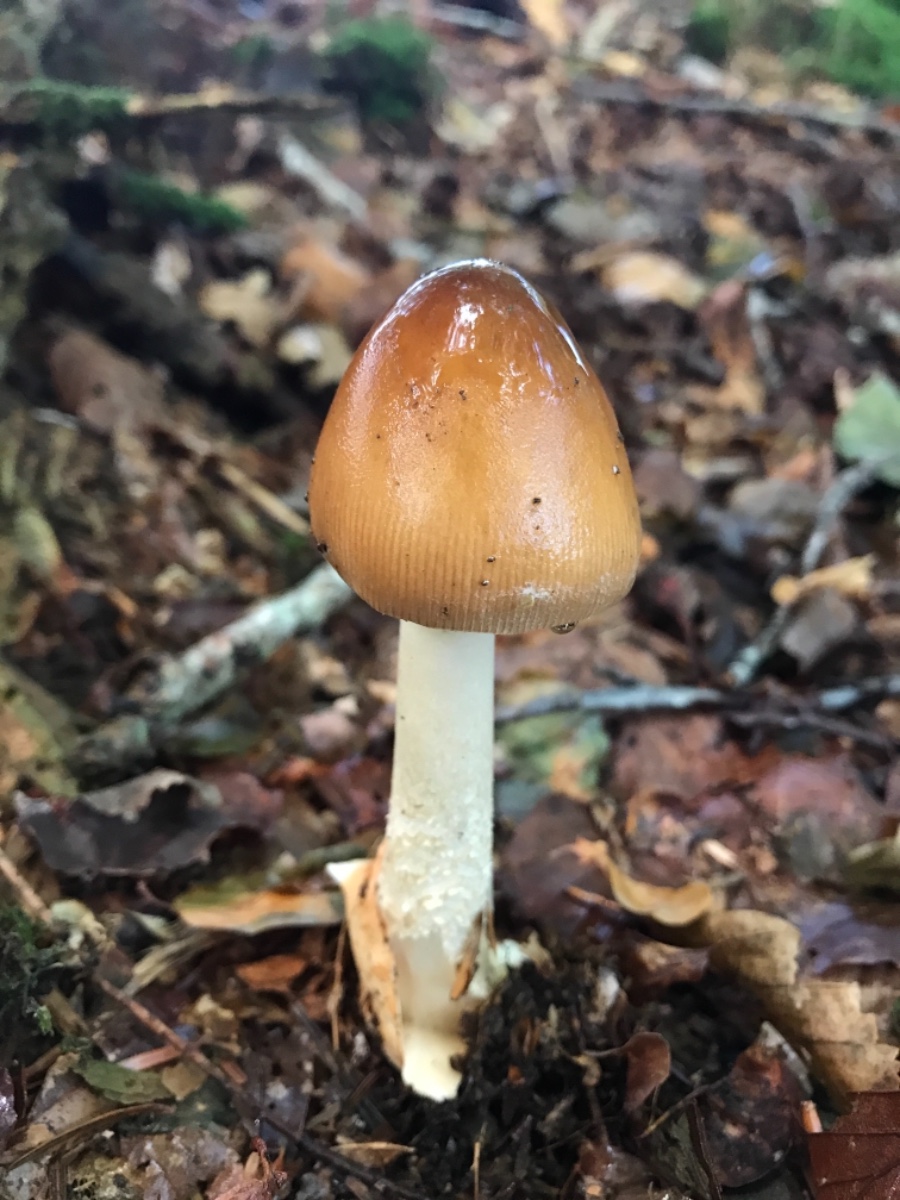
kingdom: Fungi
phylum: Basidiomycota
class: Agaricomycetes
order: Agaricales
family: Amanitaceae
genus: Amanita
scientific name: Amanita fulva
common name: brun kam-fluesvamp
